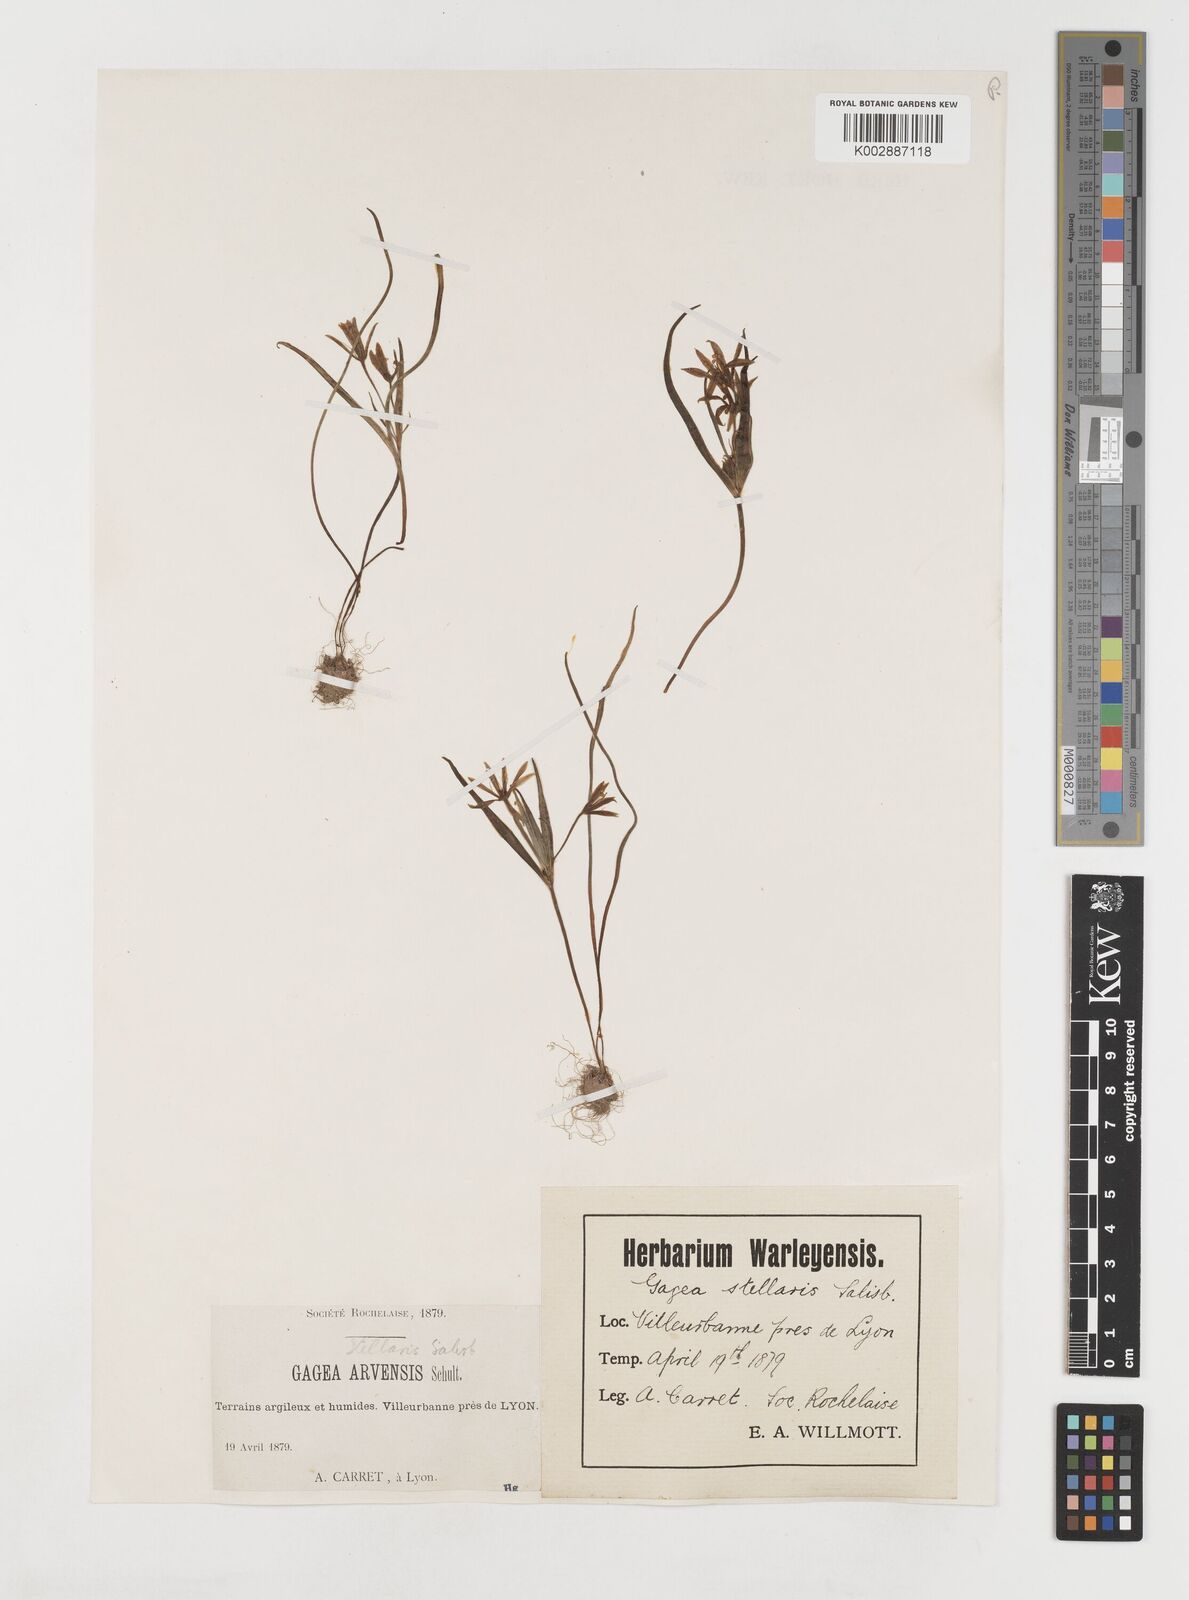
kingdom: Plantae
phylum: Tracheophyta
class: Liliopsida
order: Liliales
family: Liliaceae
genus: Gagea
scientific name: Gagea villosa
